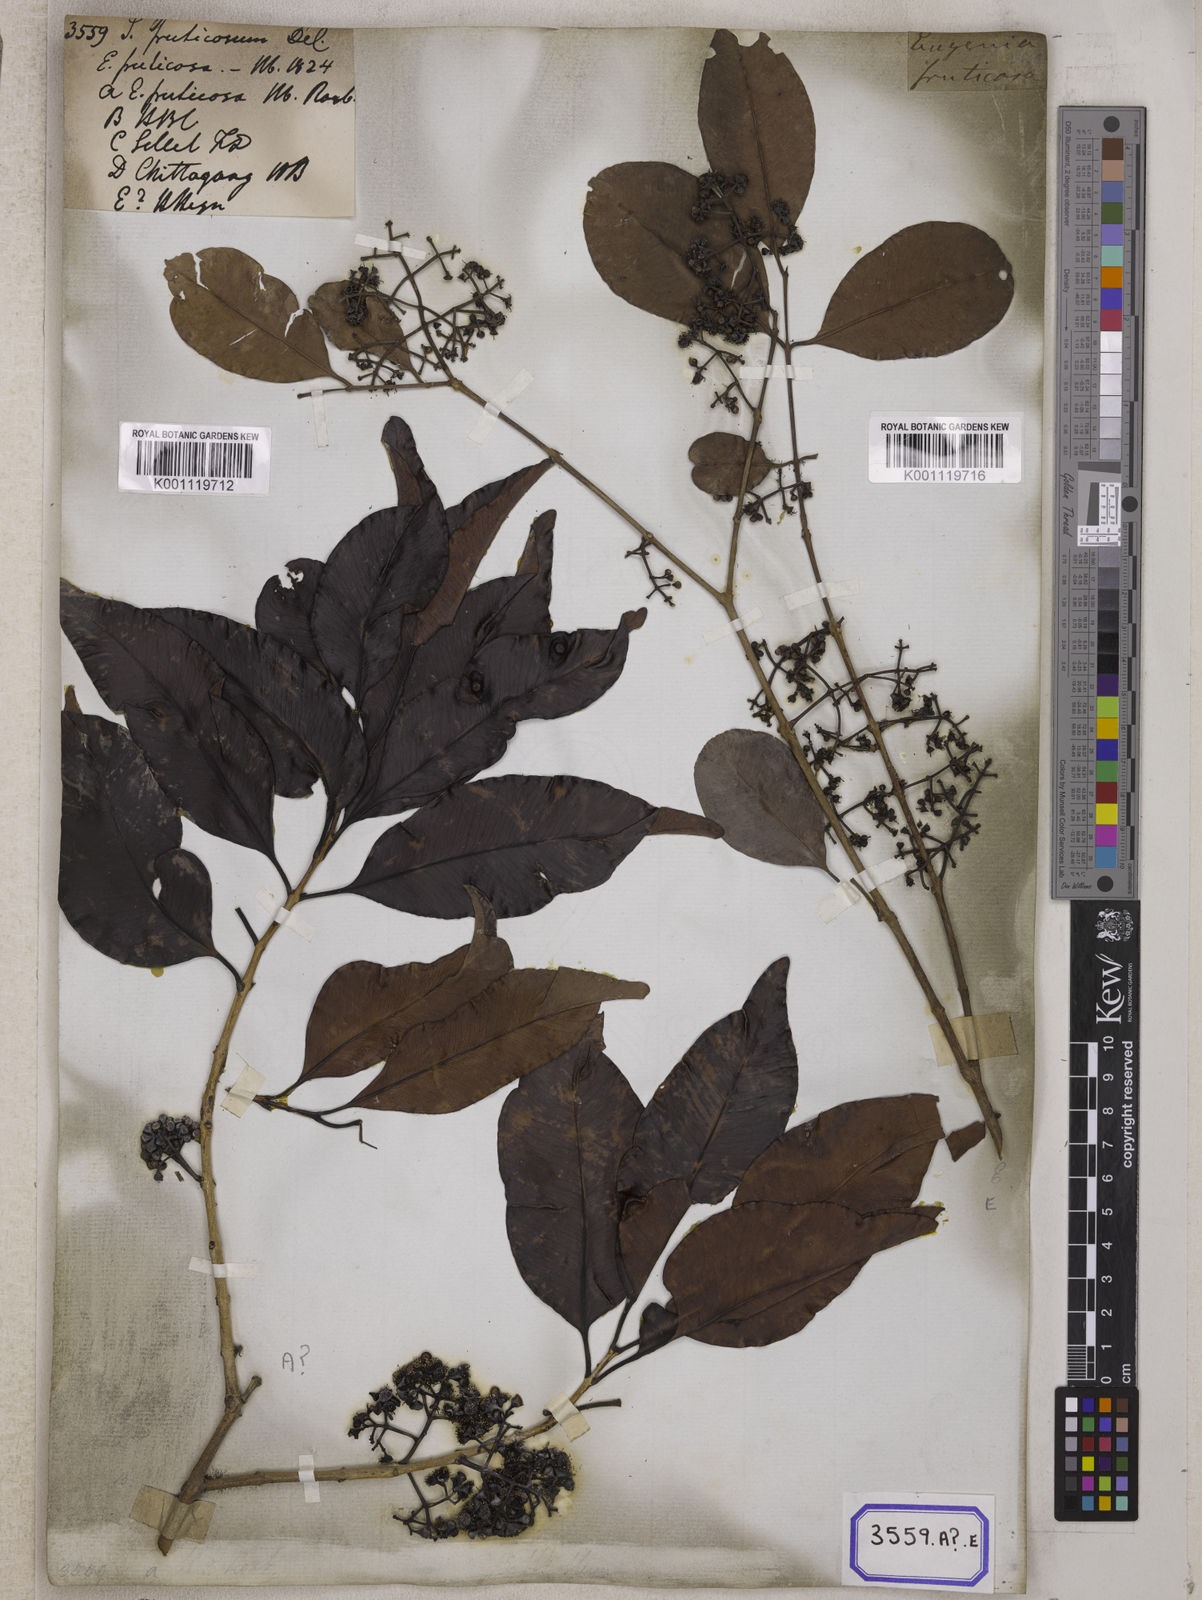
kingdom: Plantae
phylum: Tracheophyta
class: Magnoliopsida
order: Myrtales
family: Myrtaceae
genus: Syzygium
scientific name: Syzygium fruticosum
